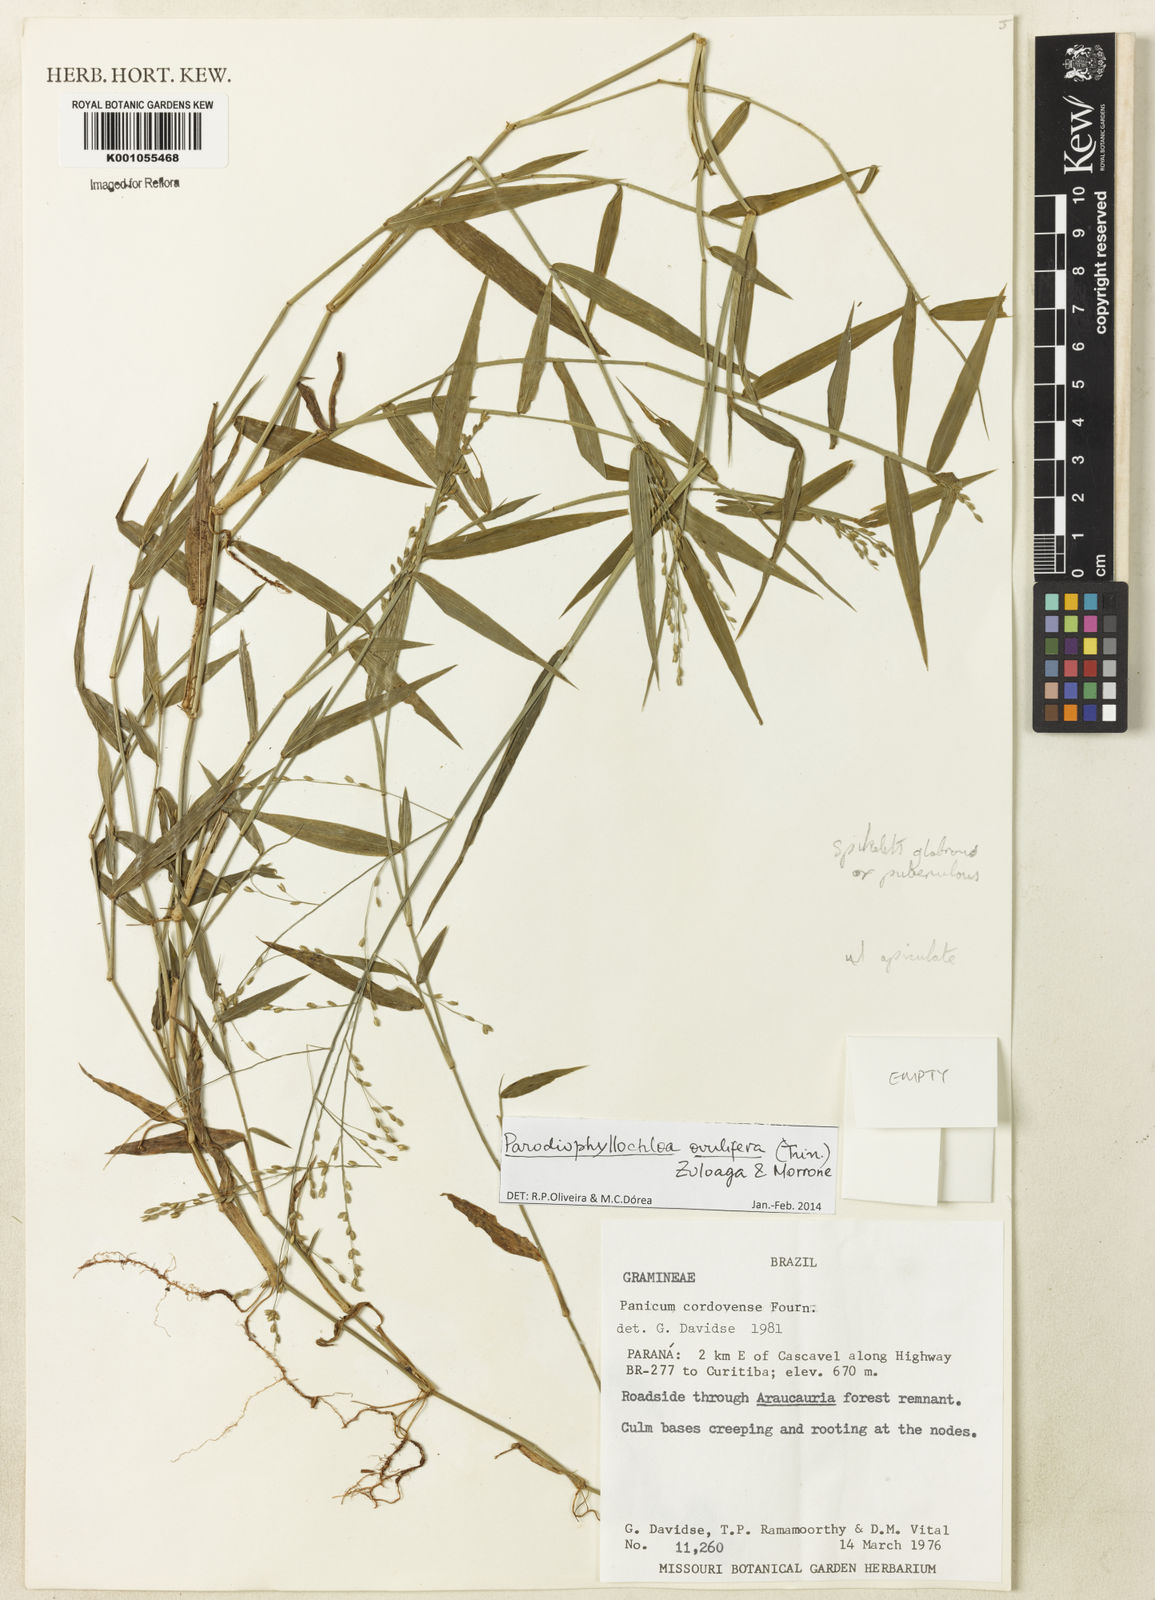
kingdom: Plantae
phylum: Tracheophyta
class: Liliopsida
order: Poales
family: Poaceae
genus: Parodiophyllochloa
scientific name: Parodiophyllochloa ovulifera
